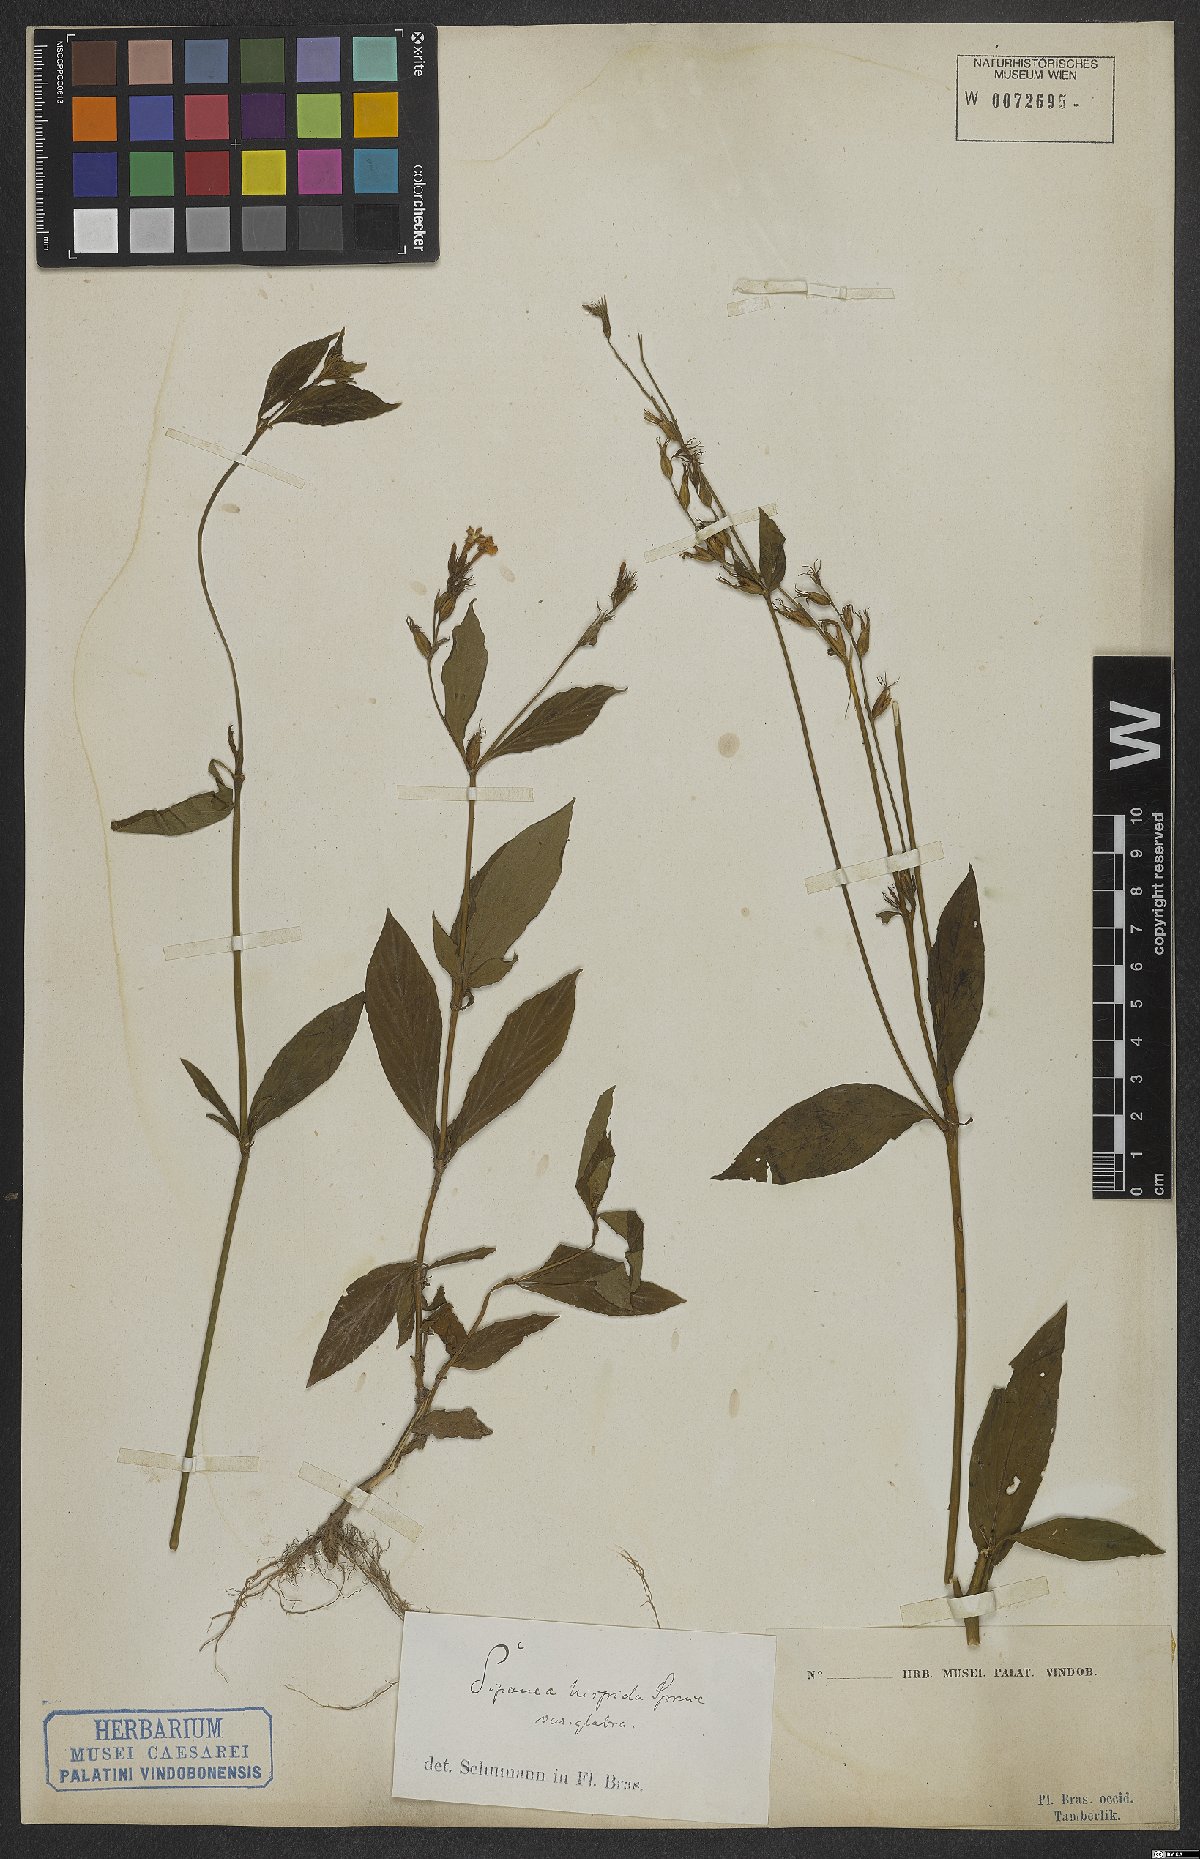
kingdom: Plantae
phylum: Tracheophyta
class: Magnoliopsida
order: Gentianales
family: Rubiaceae
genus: Sipanea
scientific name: Sipanea hispida
